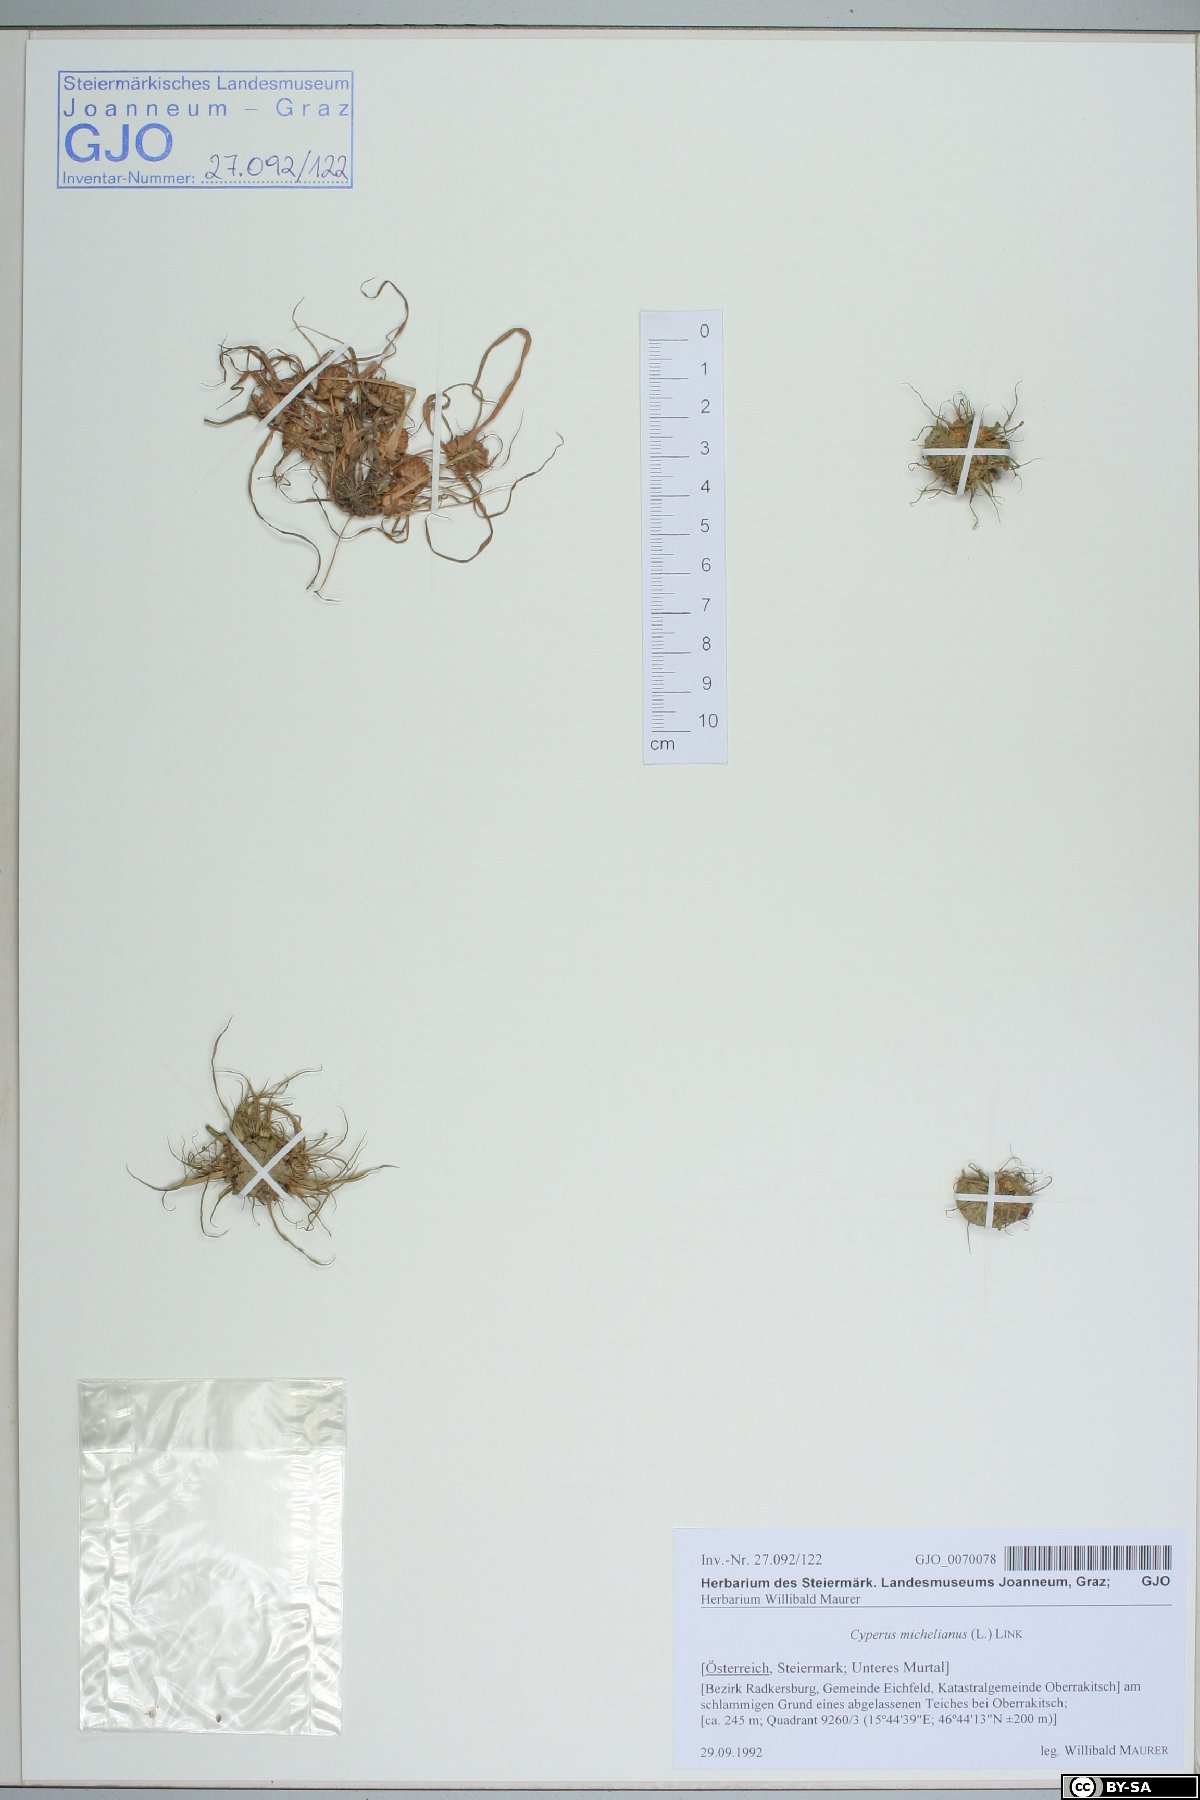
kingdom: Plantae
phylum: Tracheophyta
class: Liliopsida
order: Poales
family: Cyperaceae
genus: Cyperus
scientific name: Cyperus michelianus
